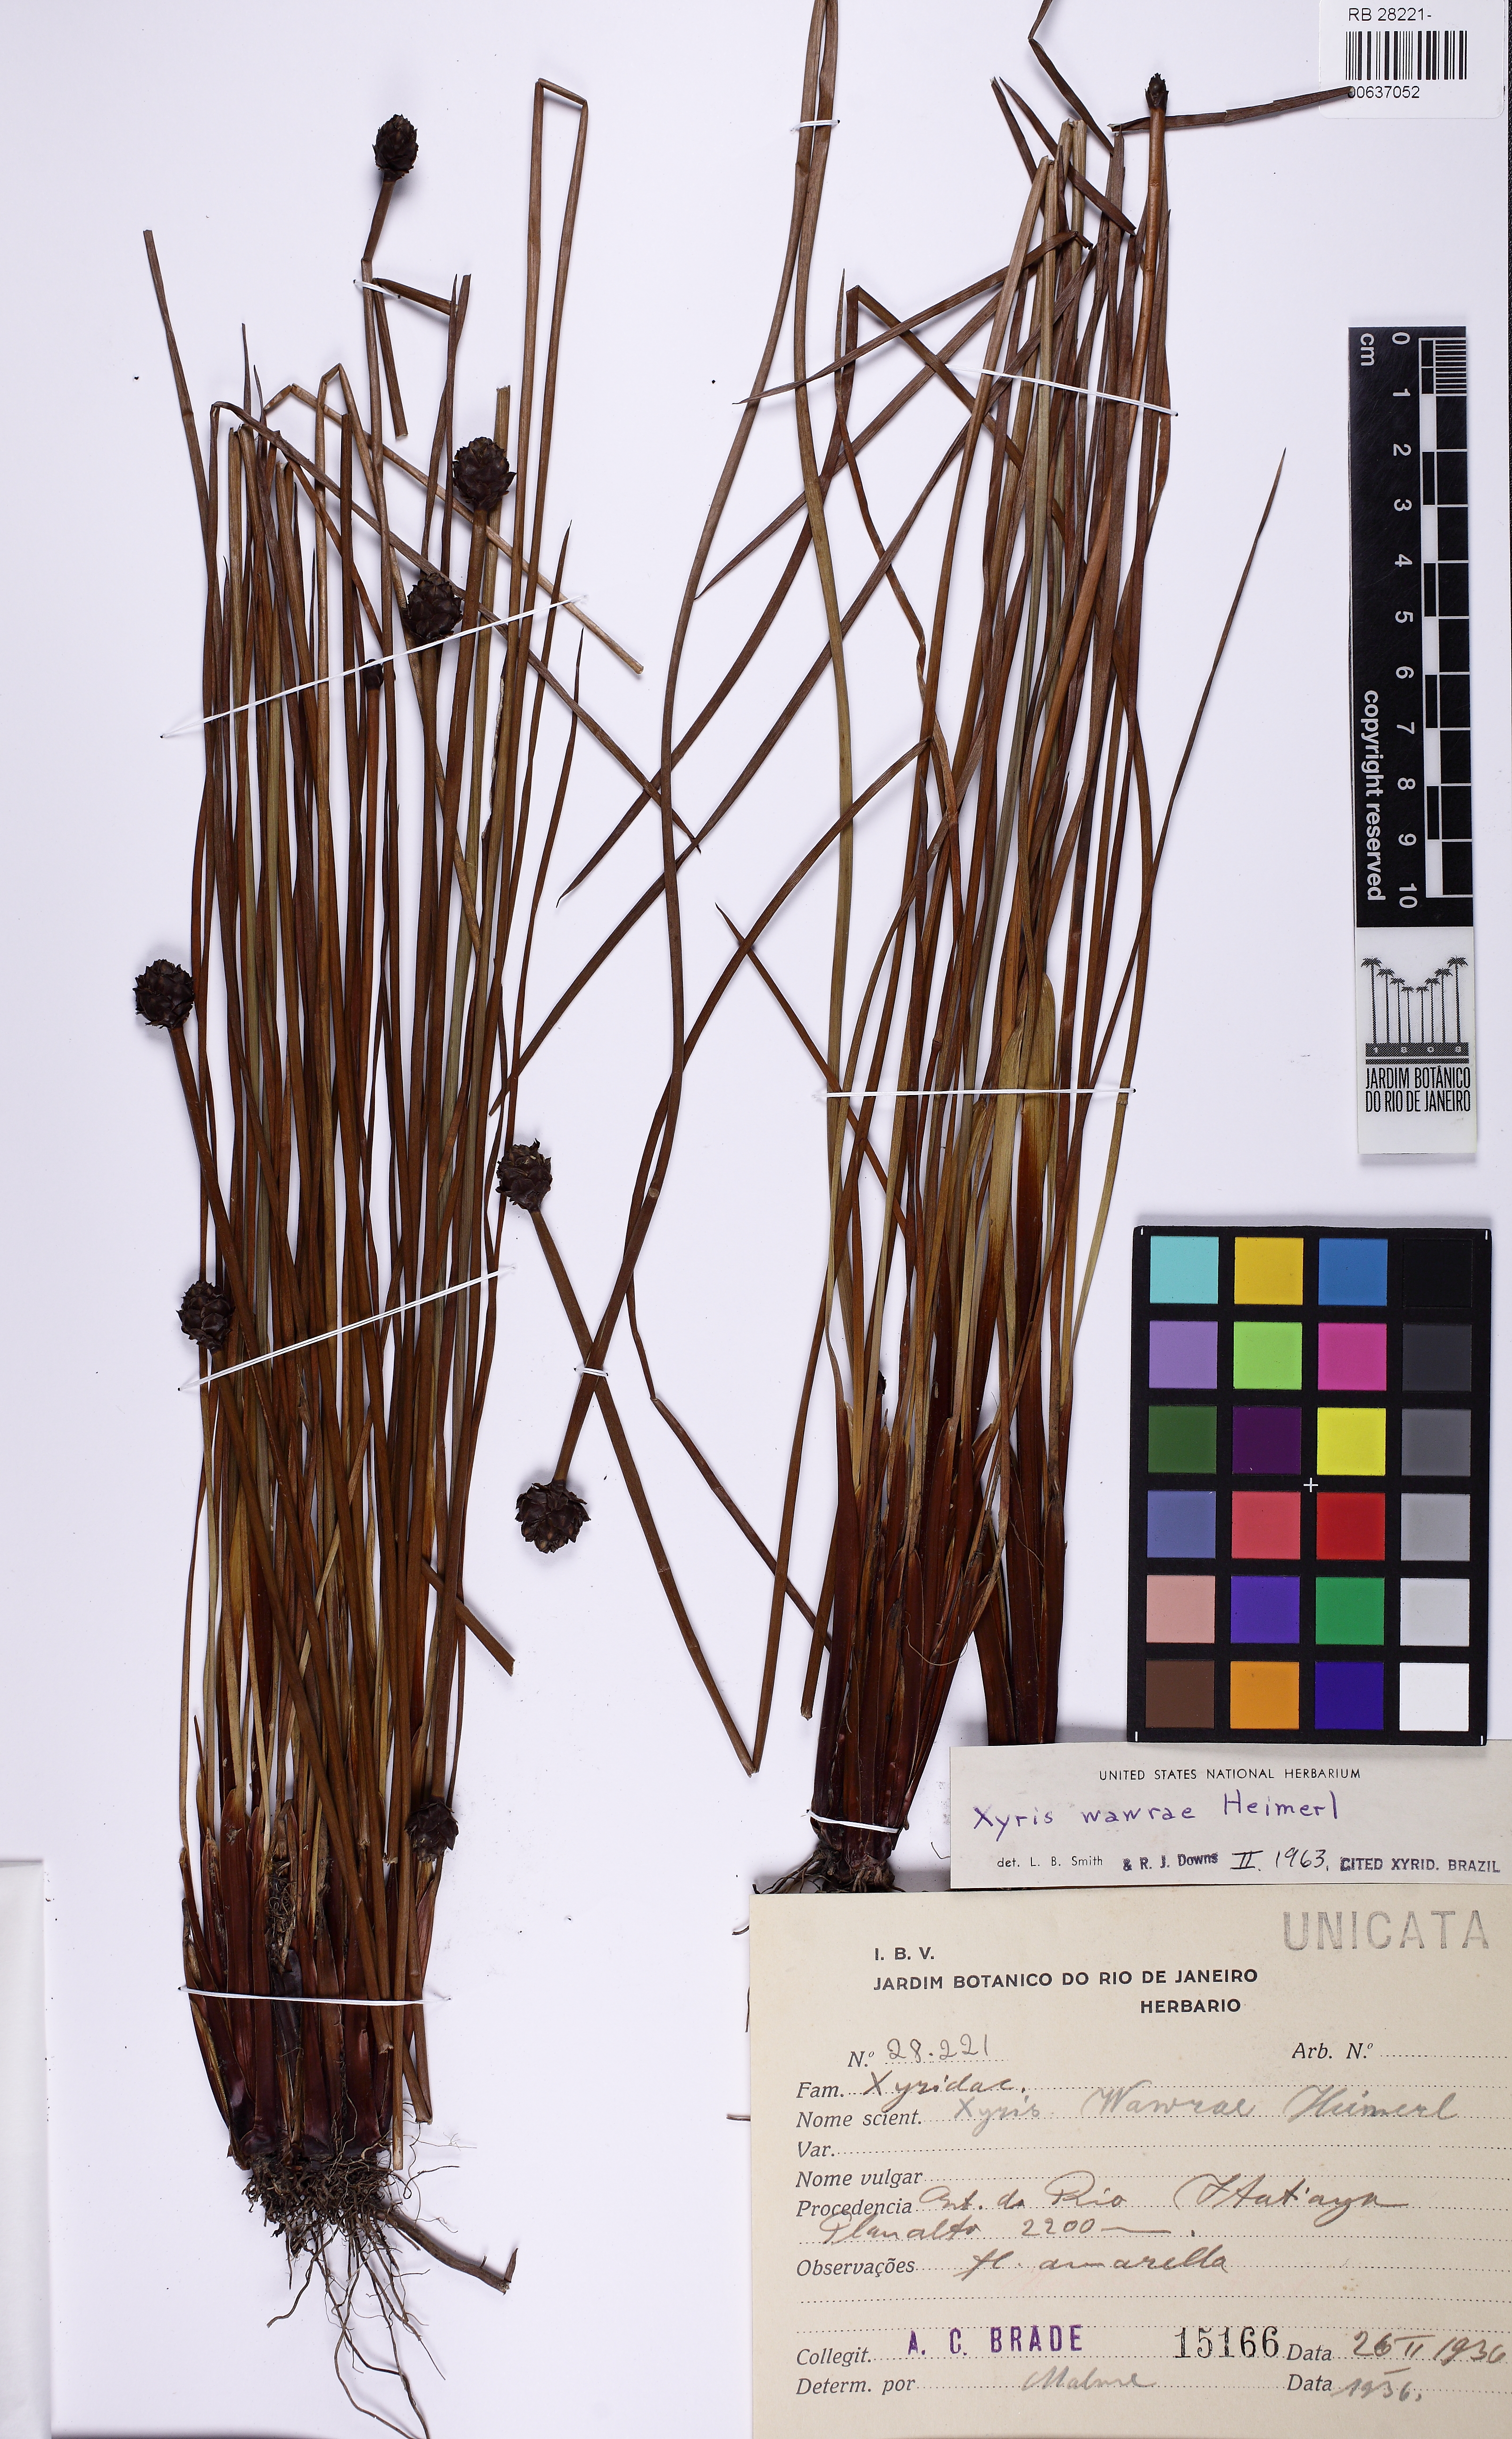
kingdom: Plantae
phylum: Tracheophyta
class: Liliopsida
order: Poales
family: Xyridaceae
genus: Xyris
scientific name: Xyris wawrae
